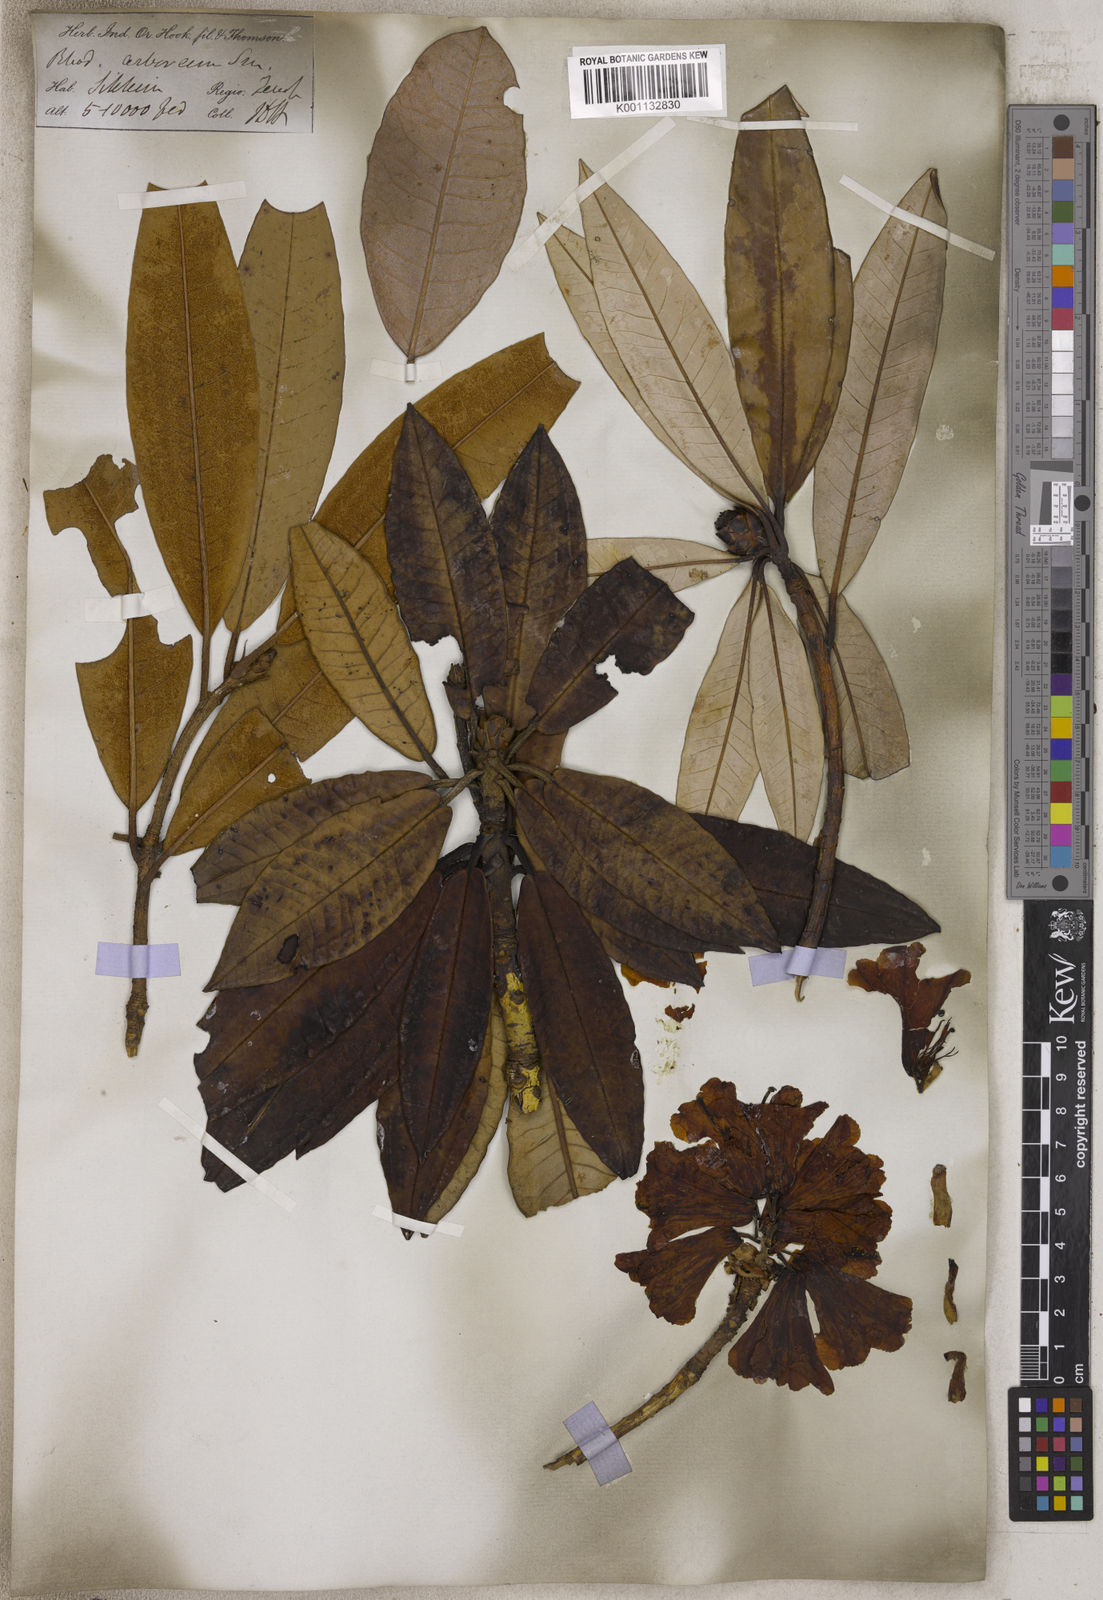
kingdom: Plantae
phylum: Tracheophyta
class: Magnoliopsida
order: Ericales
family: Ericaceae
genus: Rhododendron
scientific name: Rhododendron arboreum
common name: Tree rhododendron
